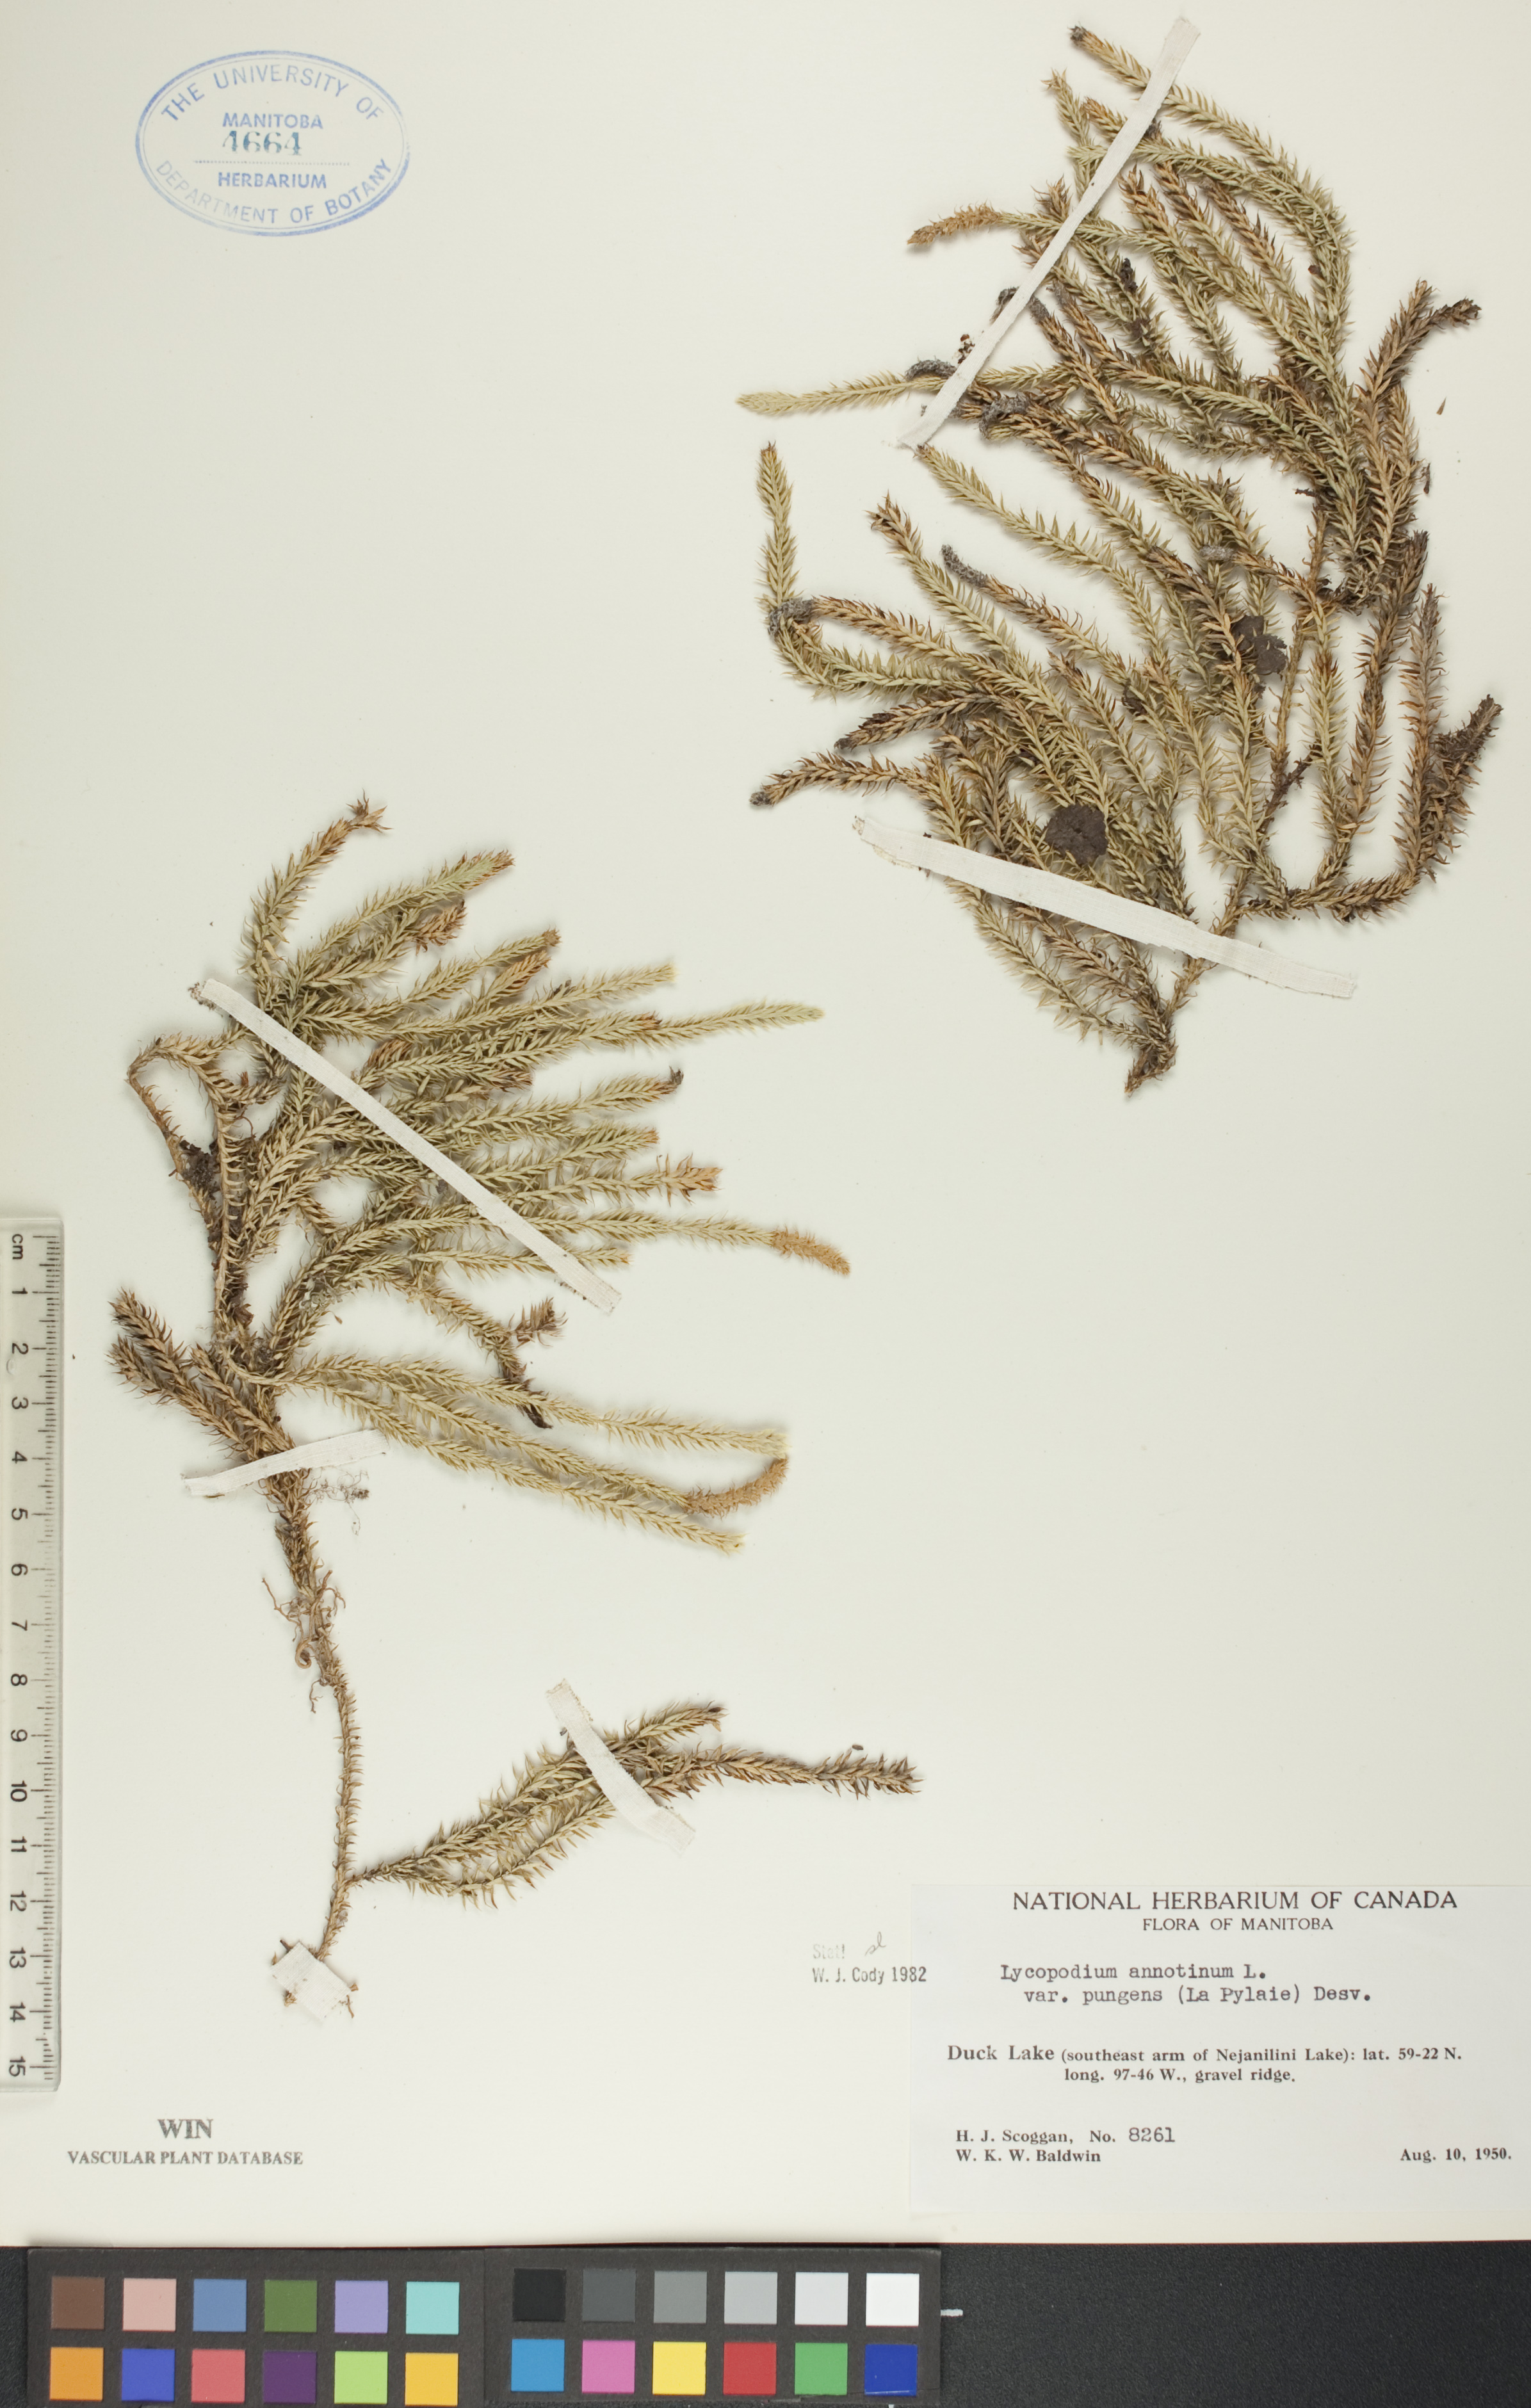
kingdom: Plantae
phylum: Tracheophyta
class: Lycopodiopsida
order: Lycopodiales
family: Lycopodiaceae
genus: Spinulum
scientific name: Spinulum annotinum
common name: Interrupted club-moss
